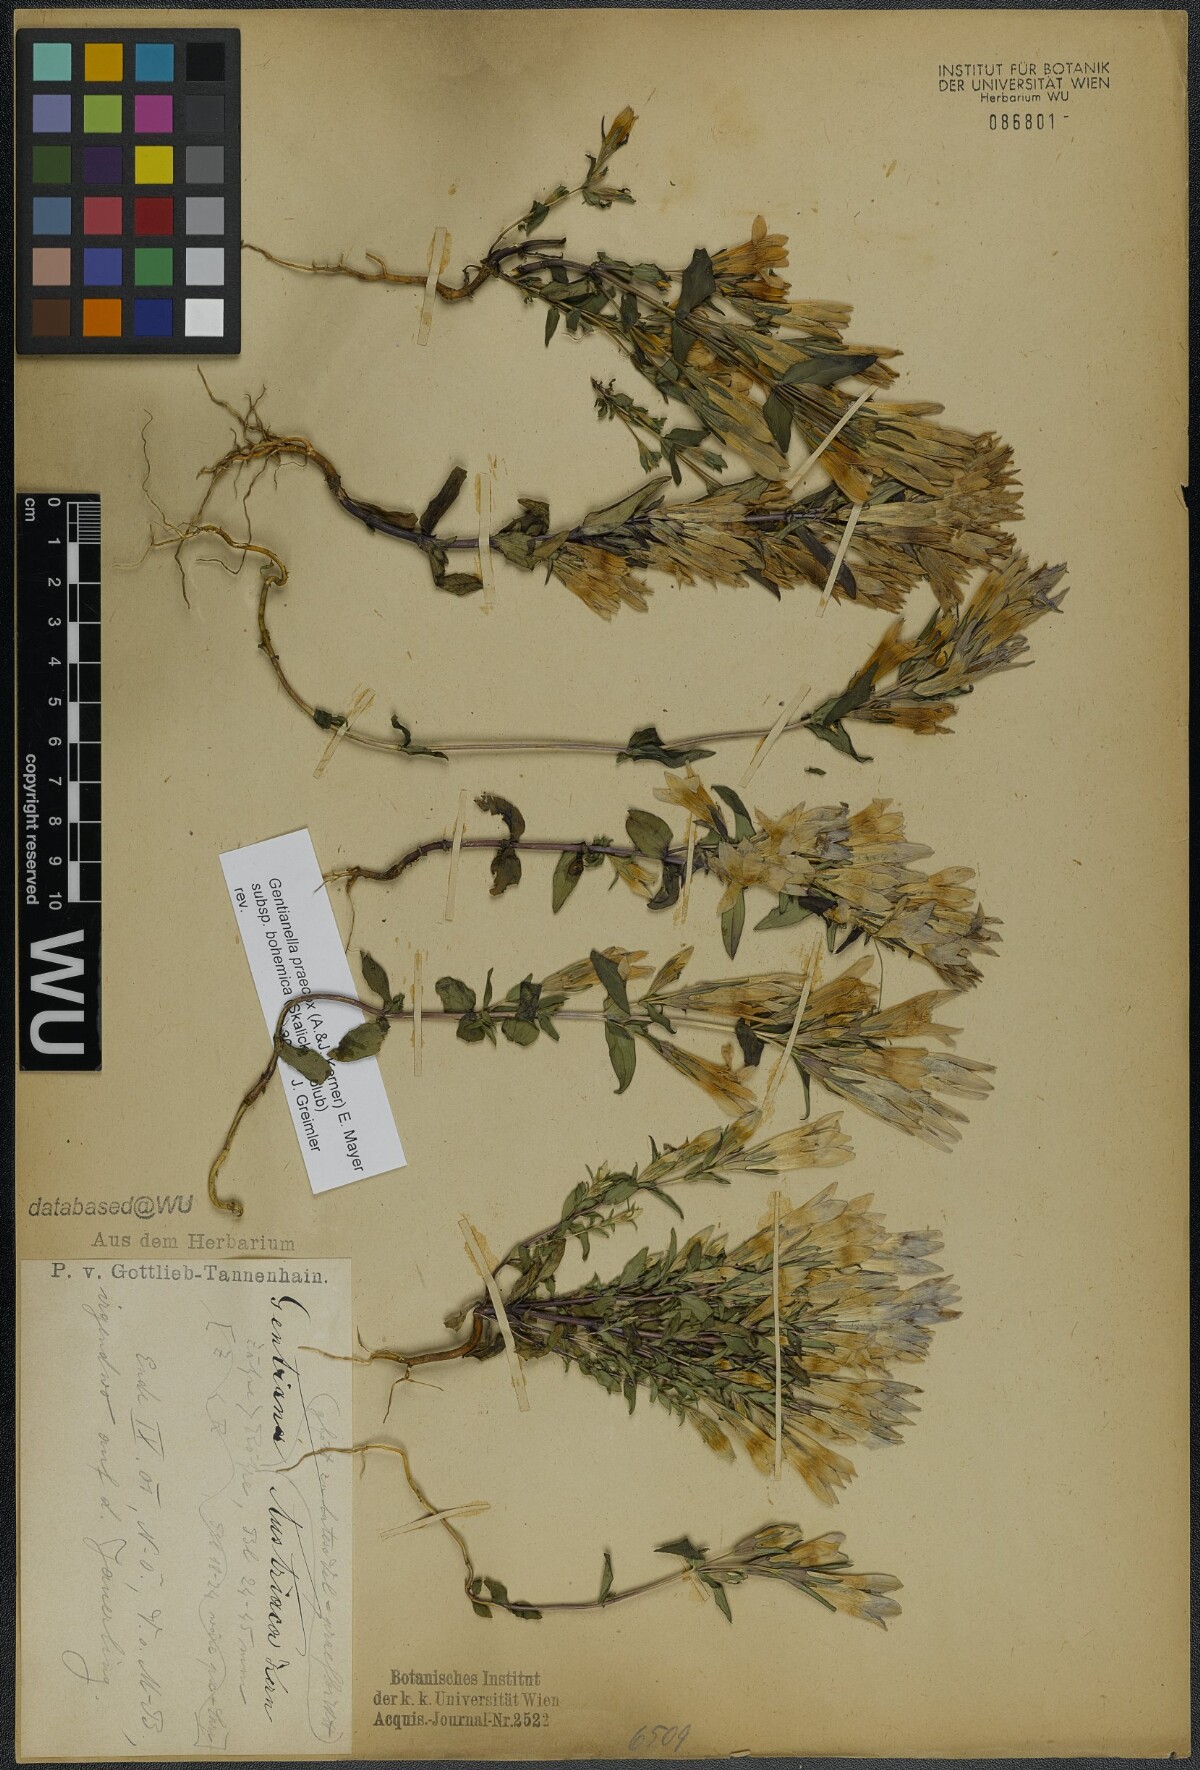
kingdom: Plantae
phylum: Tracheophyta
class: Magnoliopsida
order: Gentianales
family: Gentianaceae
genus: Gentianella
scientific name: Gentianella praecox
